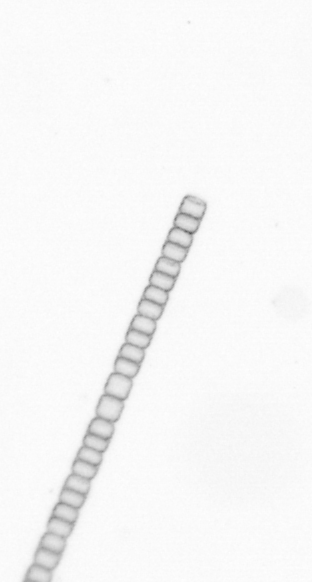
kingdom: Chromista
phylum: Ochrophyta
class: Bacillariophyceae
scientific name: Bacillariophyceae
